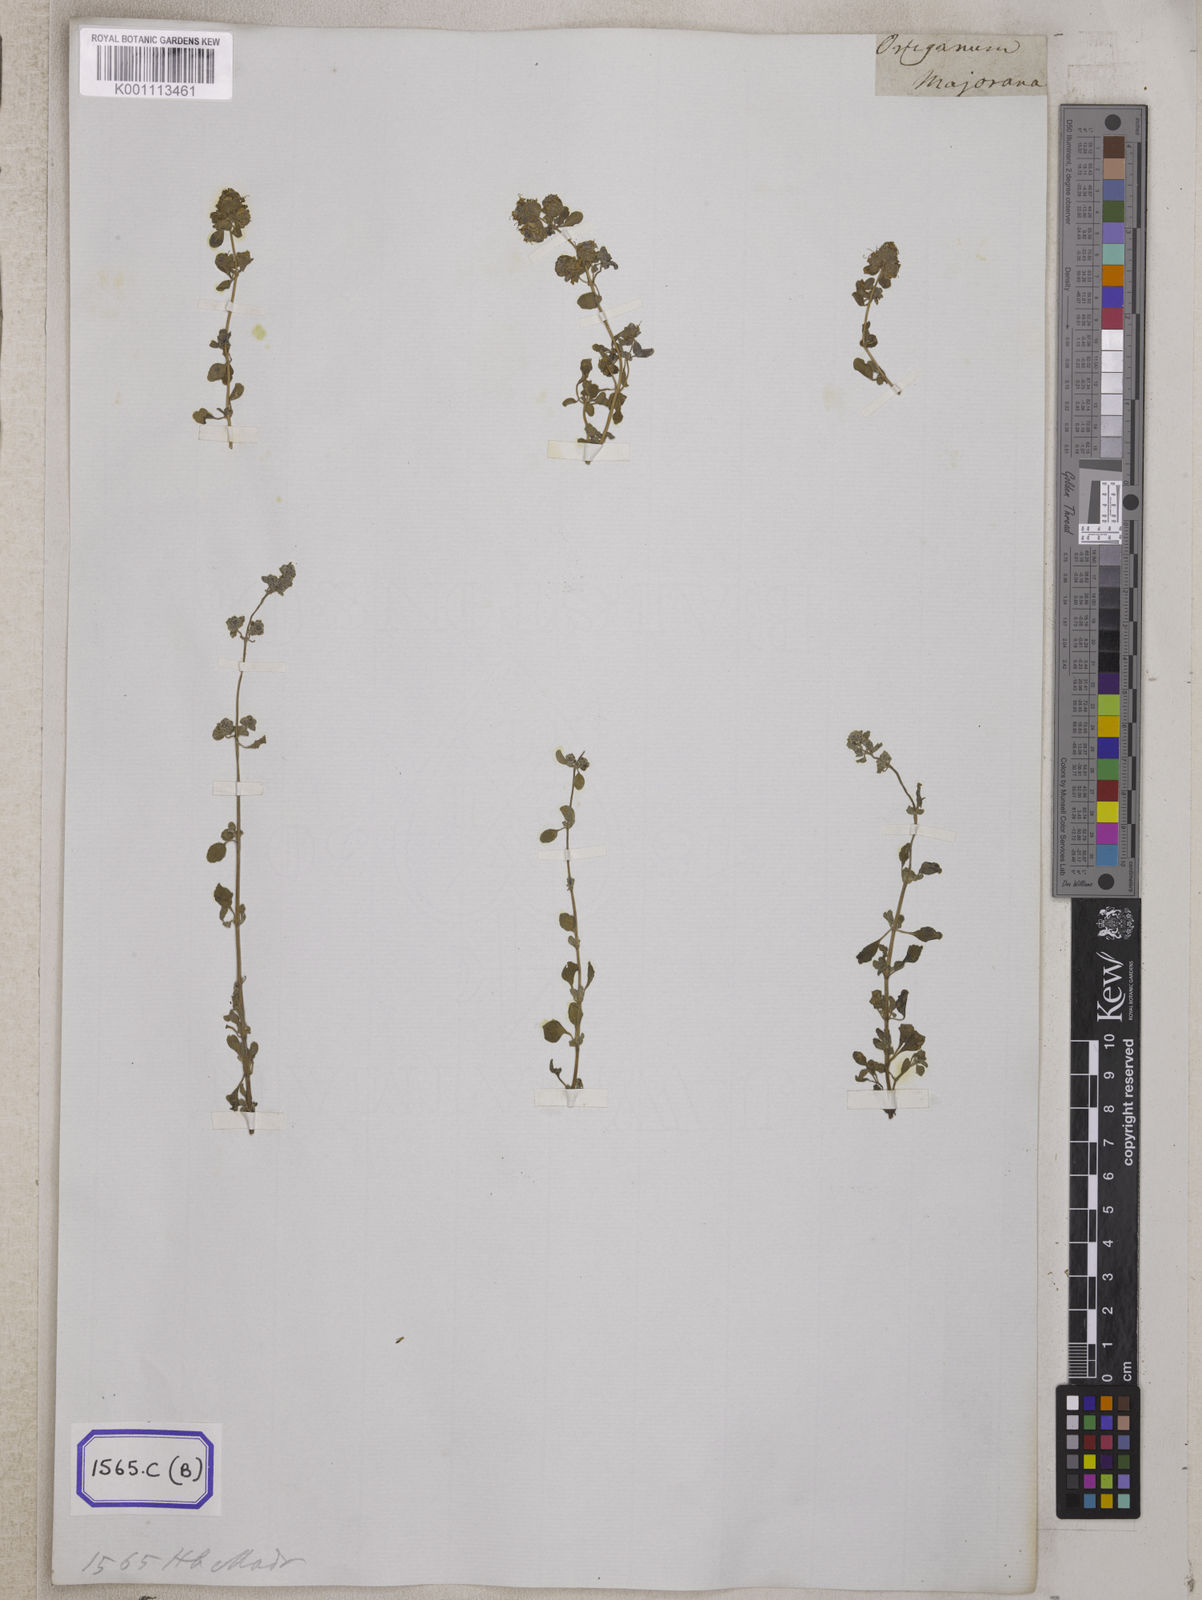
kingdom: Plantae
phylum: Tracheophyta
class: Magnoliopsida
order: Lamiales
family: Lamiaceae
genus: Origanum
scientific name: Origanum
